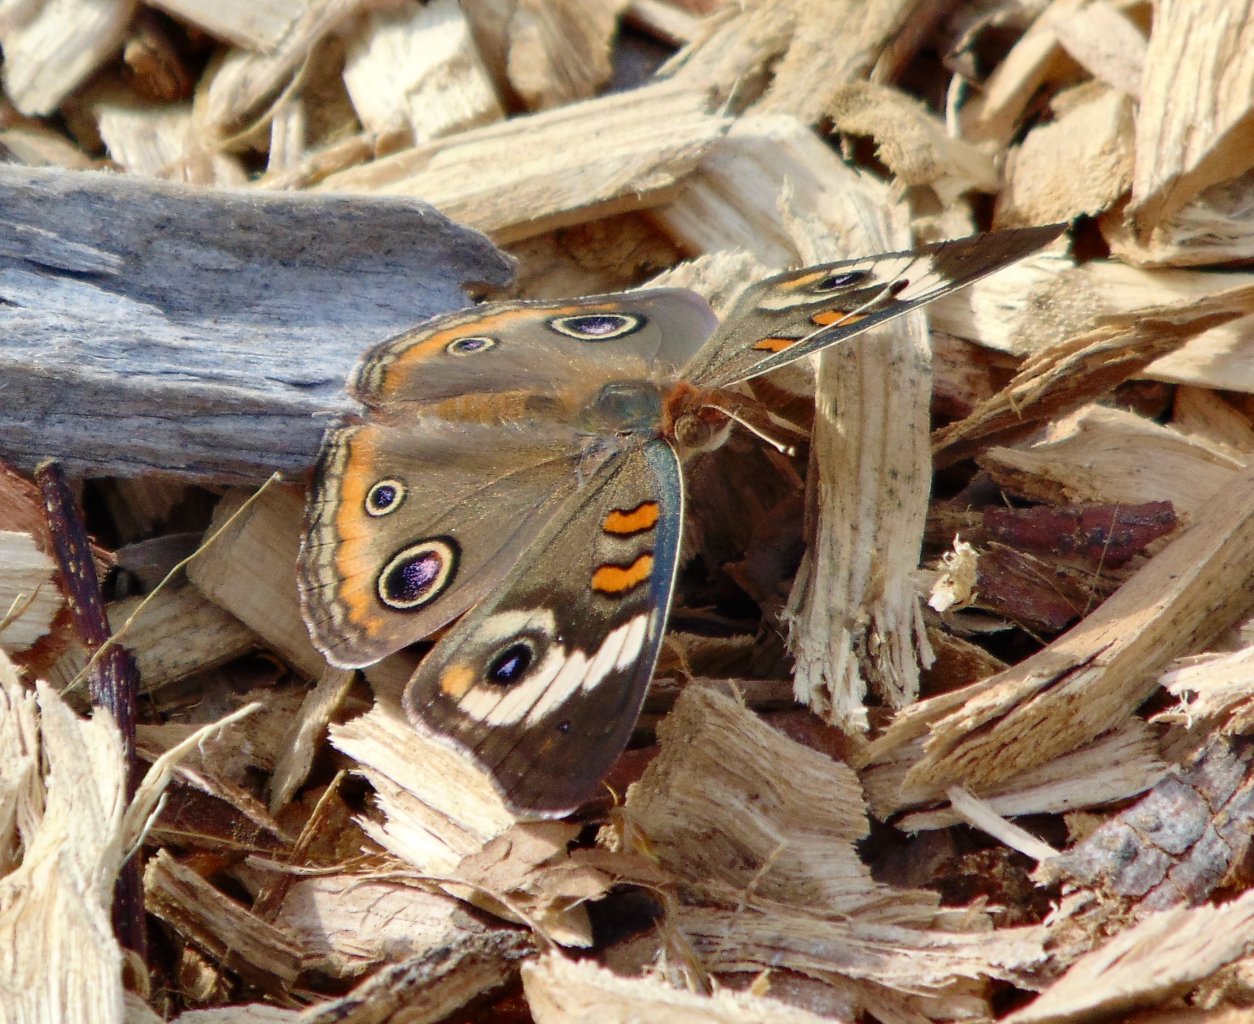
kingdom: Animalia
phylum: Arthropoda
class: Insecta
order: Lepidoptera
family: Nymphalidae
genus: Junonia
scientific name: Junonia coenia
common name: Common Buckeye
